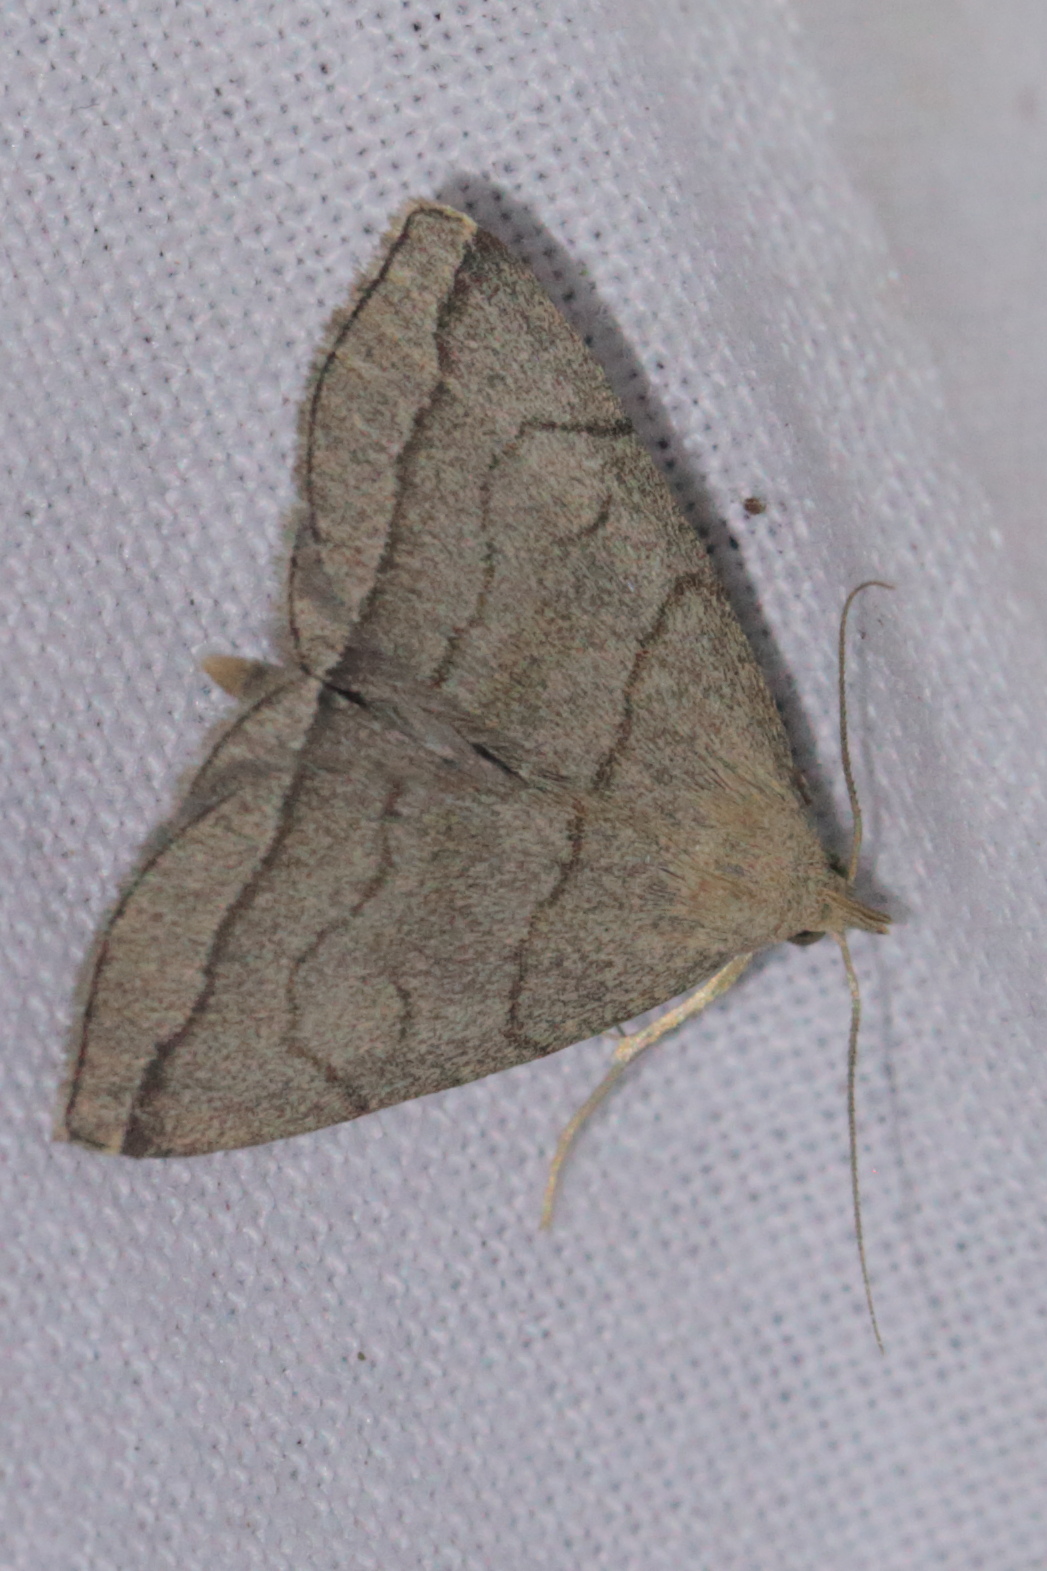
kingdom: Animalia
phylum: Arthropoda
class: Insecta
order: Lepidoptera
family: Erebidae
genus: Herminia
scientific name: Herminia tarsicrinalis
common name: Shaded fan-foot
